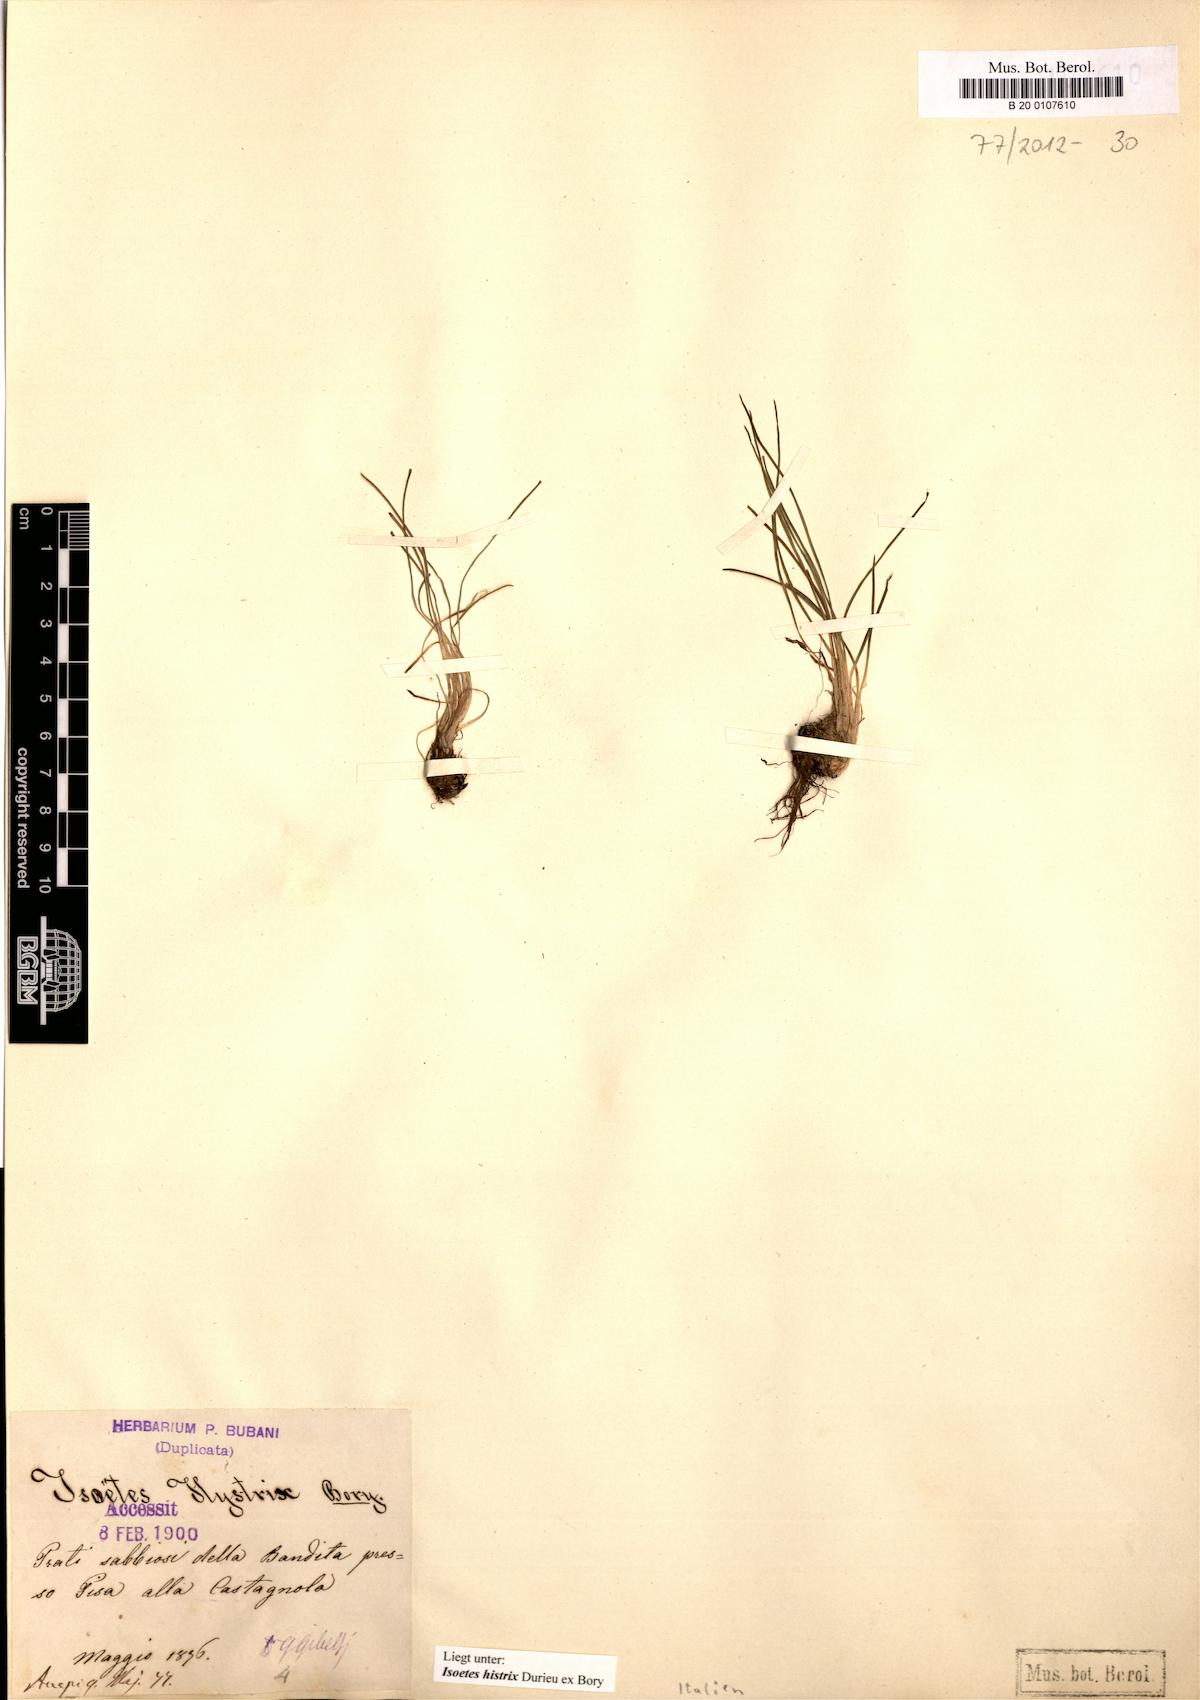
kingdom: Plantae
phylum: Tracheophyta
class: Lycopodiopsida
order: Isoetales
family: Isoetaceae
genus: Isoetes
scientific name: Isoetes histrix
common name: Land quillwort
